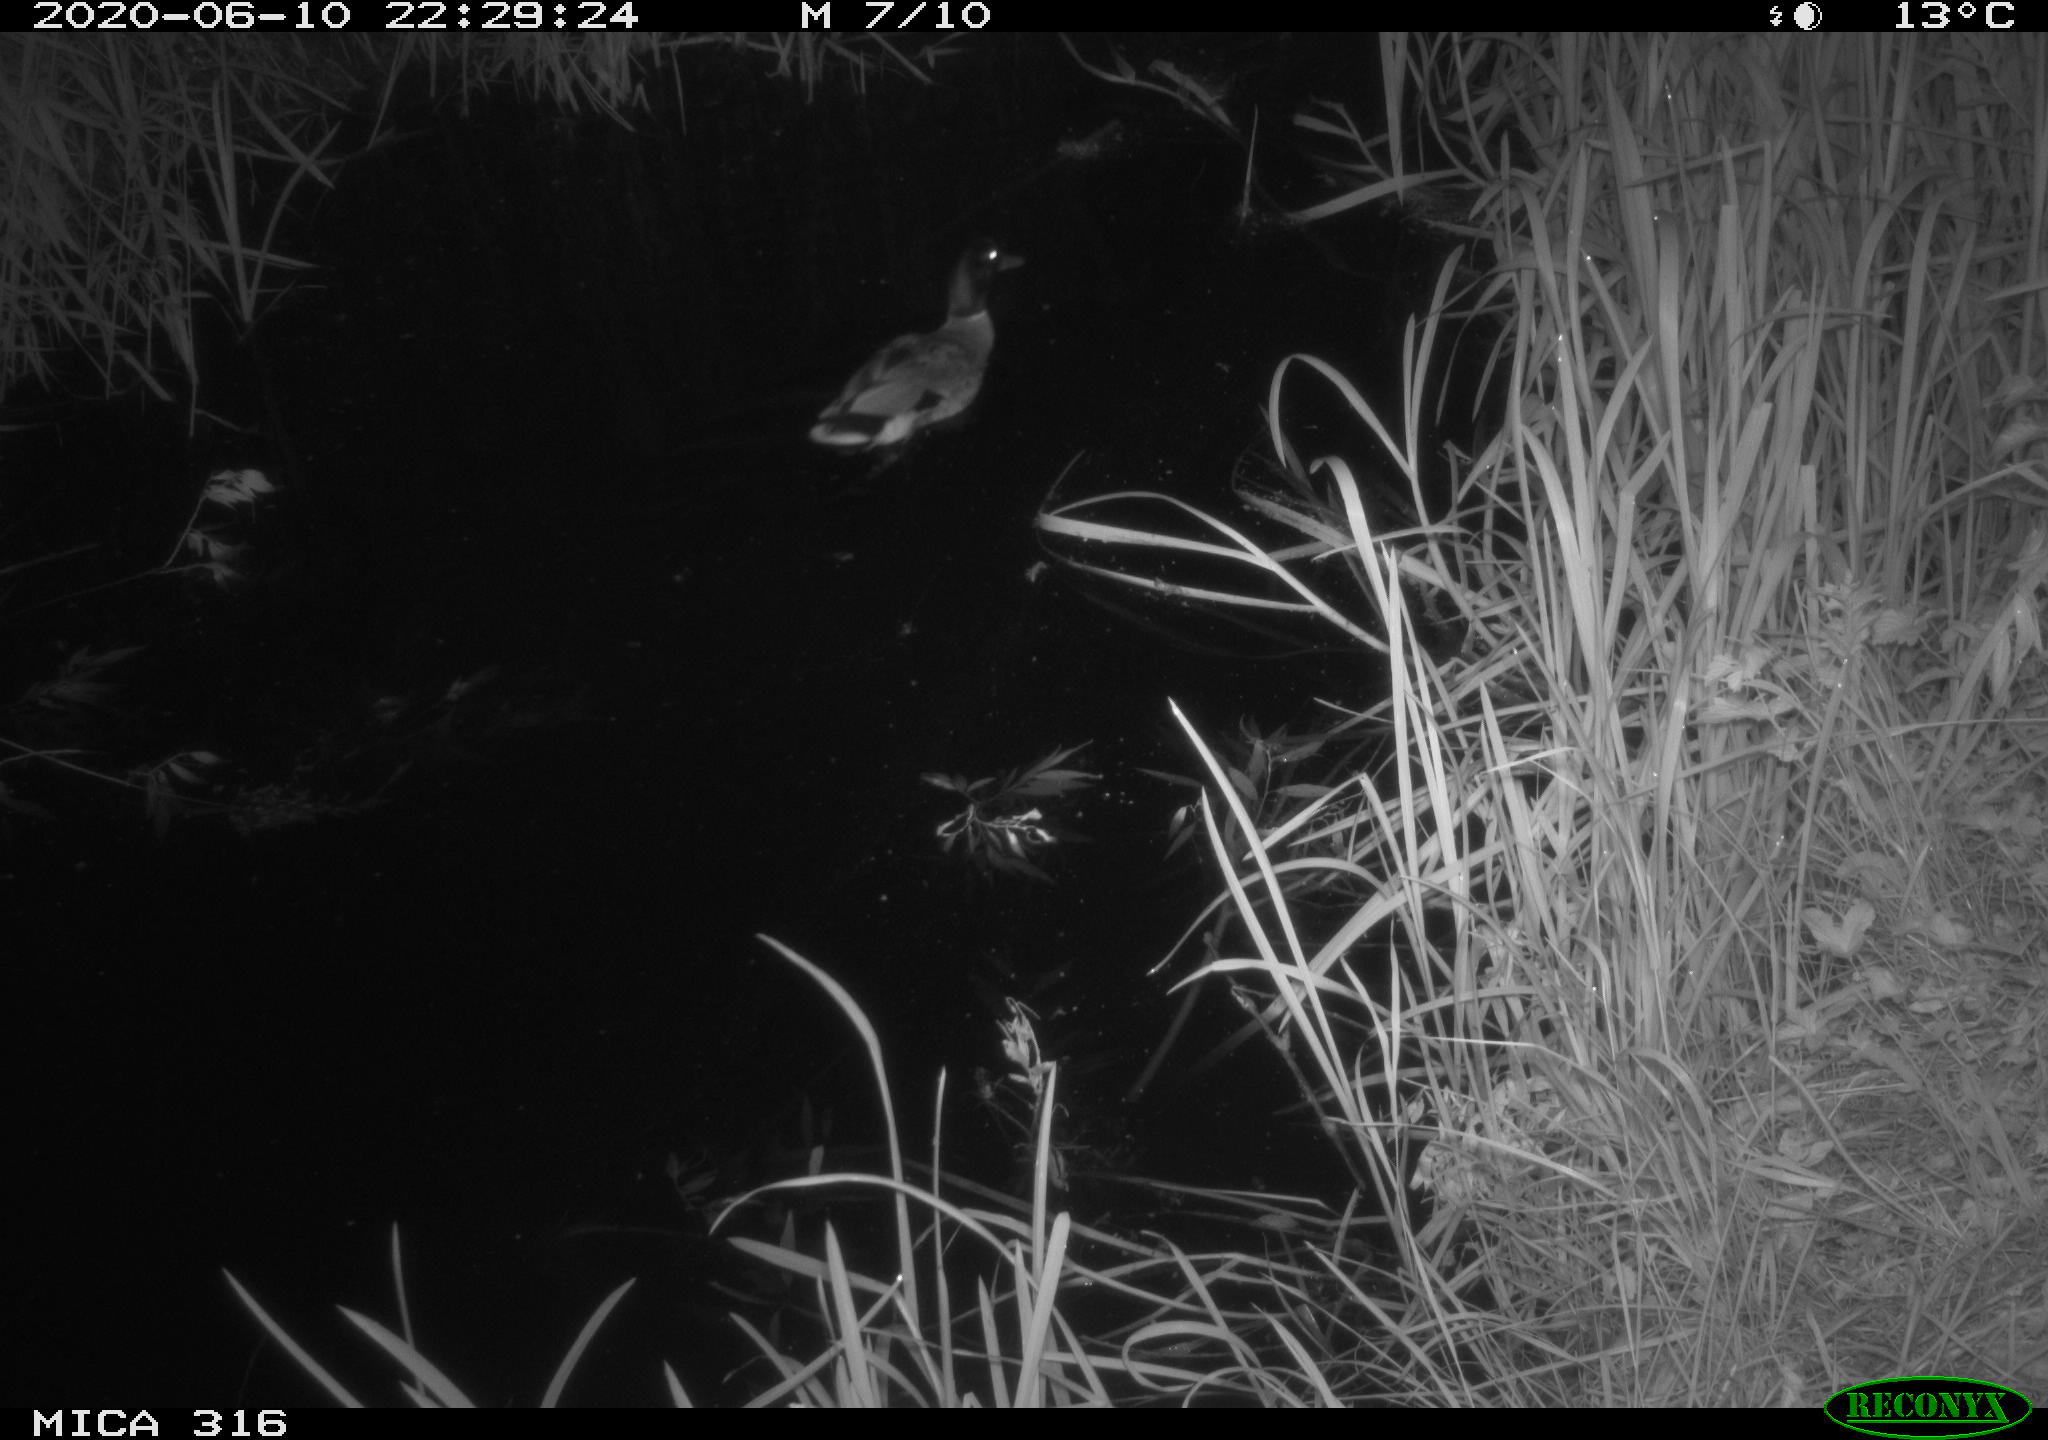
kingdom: Animalia
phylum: Chordata
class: Aves
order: Anseriformes
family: Anatidae
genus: Anas
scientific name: Anas platyrhynchos
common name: Mallard
